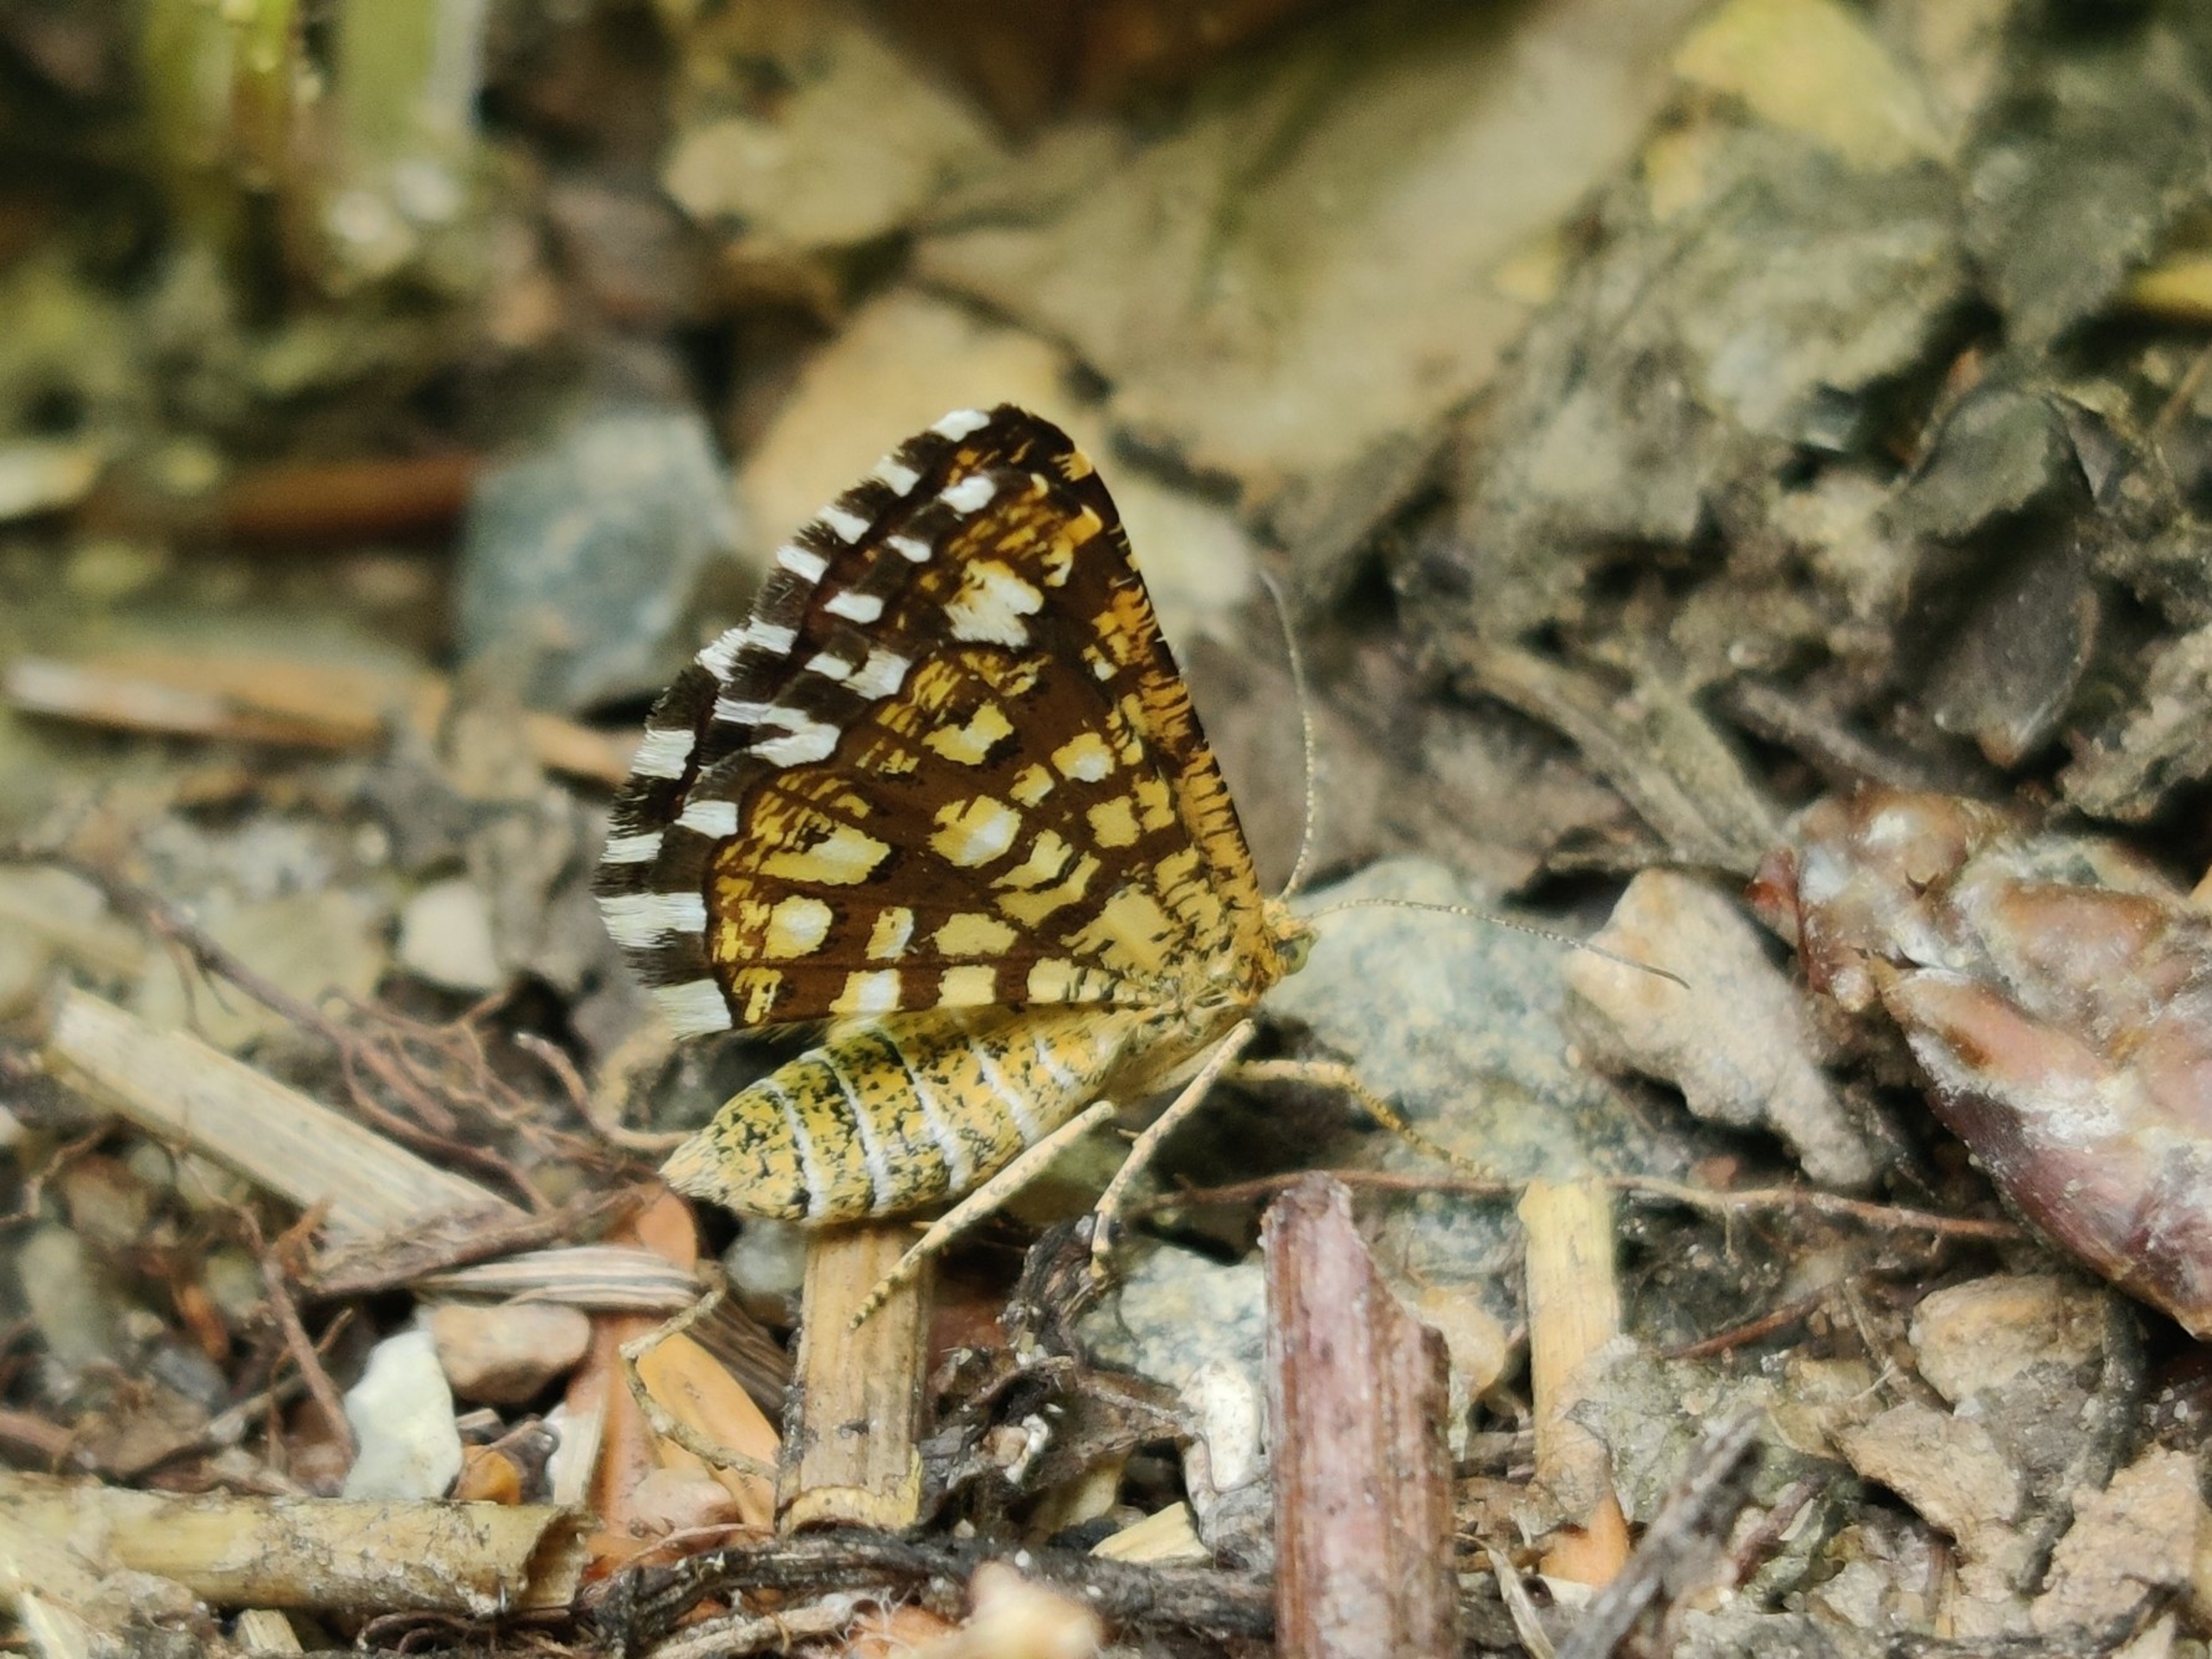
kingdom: Animalia
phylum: Arthropoda
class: Insecta
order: Lepidoptera
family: Geometridae
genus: Chiasmia
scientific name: Chiasmia clathrata
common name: Kløvermåler
